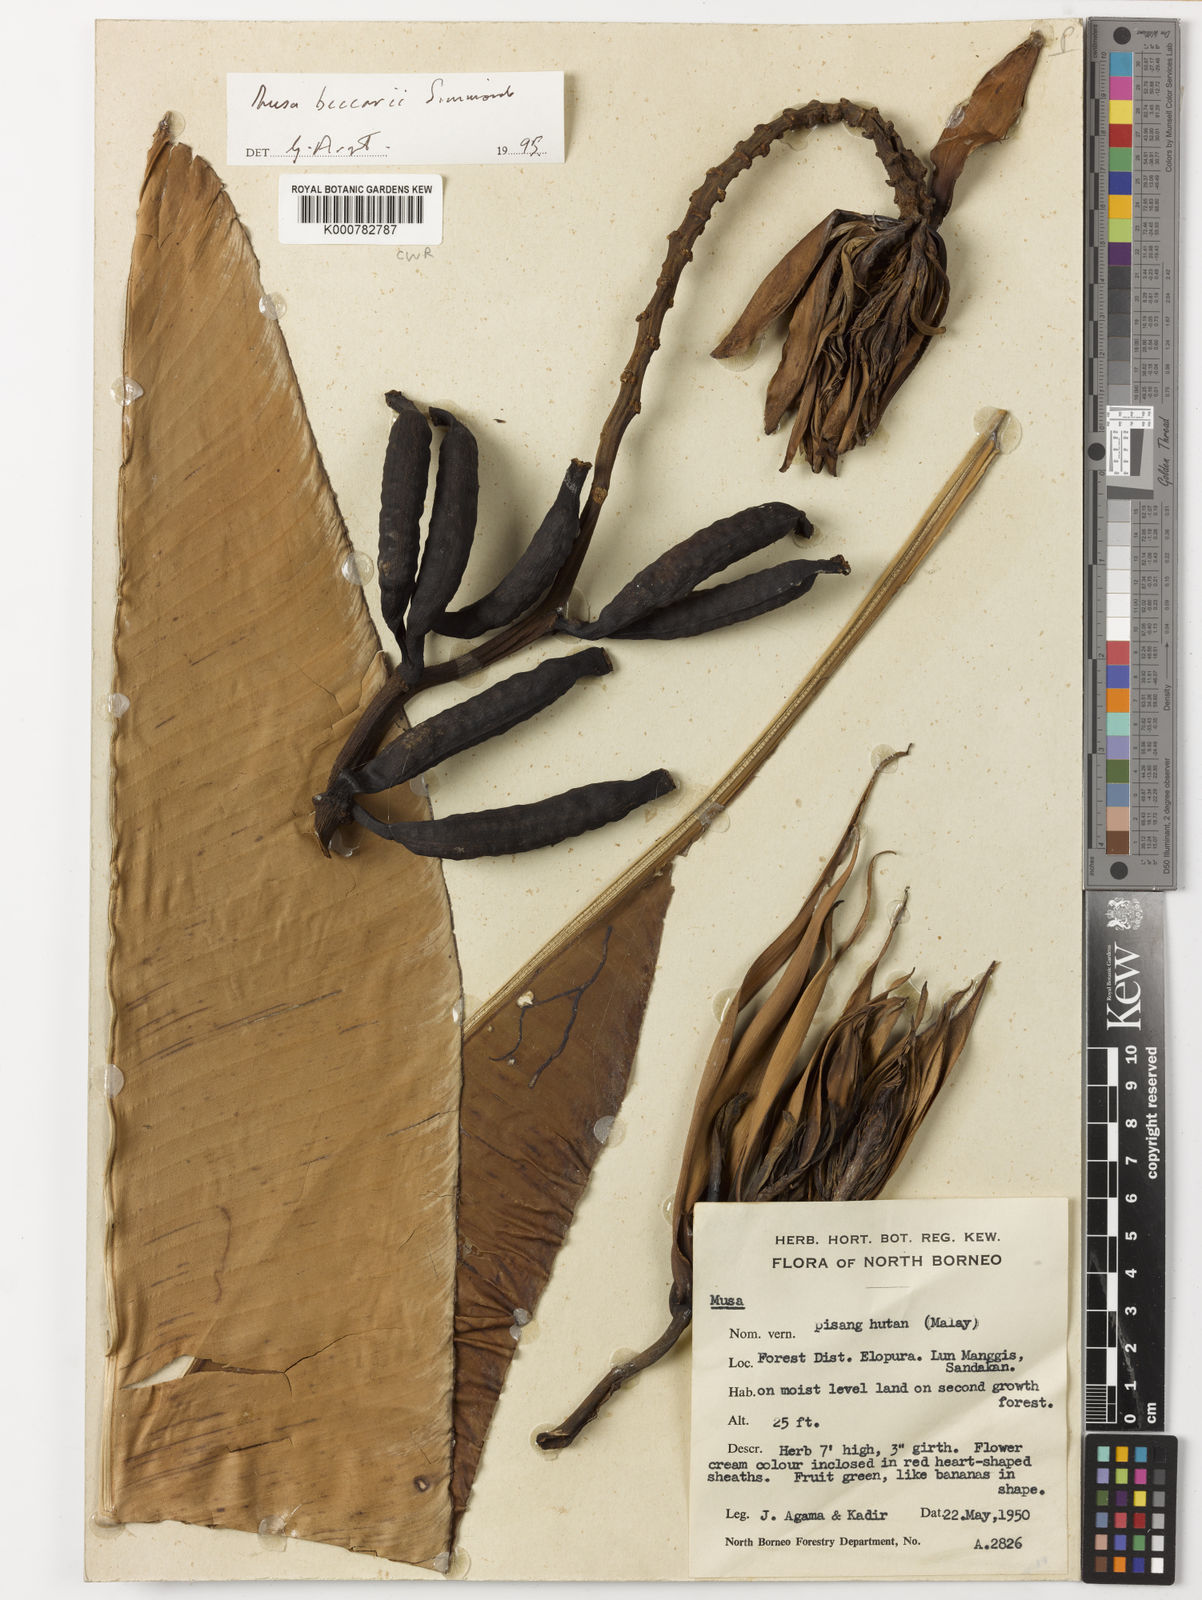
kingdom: Plantae
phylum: Tracheophyta
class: Liliopsida
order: Zingiberales
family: Musaceae
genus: Musa
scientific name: Musa beccarii
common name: Pisang tajak
